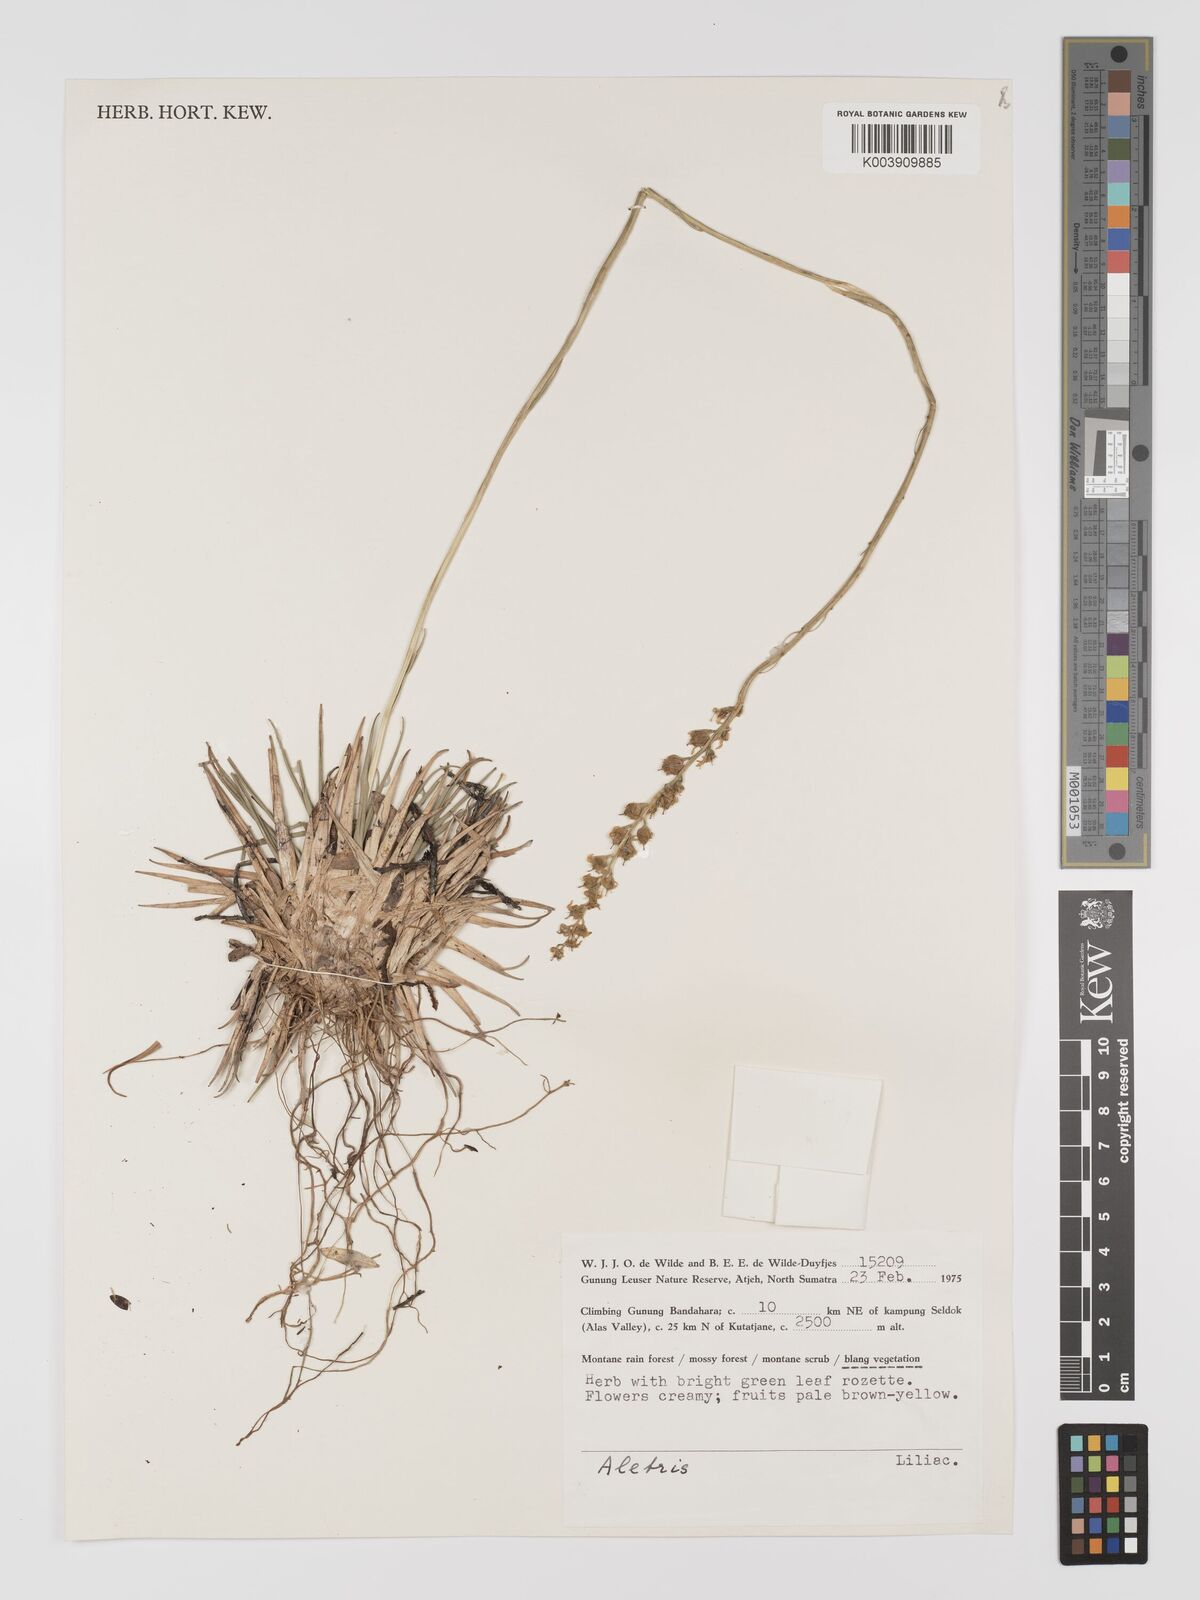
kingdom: Plantae
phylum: Tracheophyta
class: Liliopsida
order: Dioscoreales
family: Nartheciaceae
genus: Aletris
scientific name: Aletris
